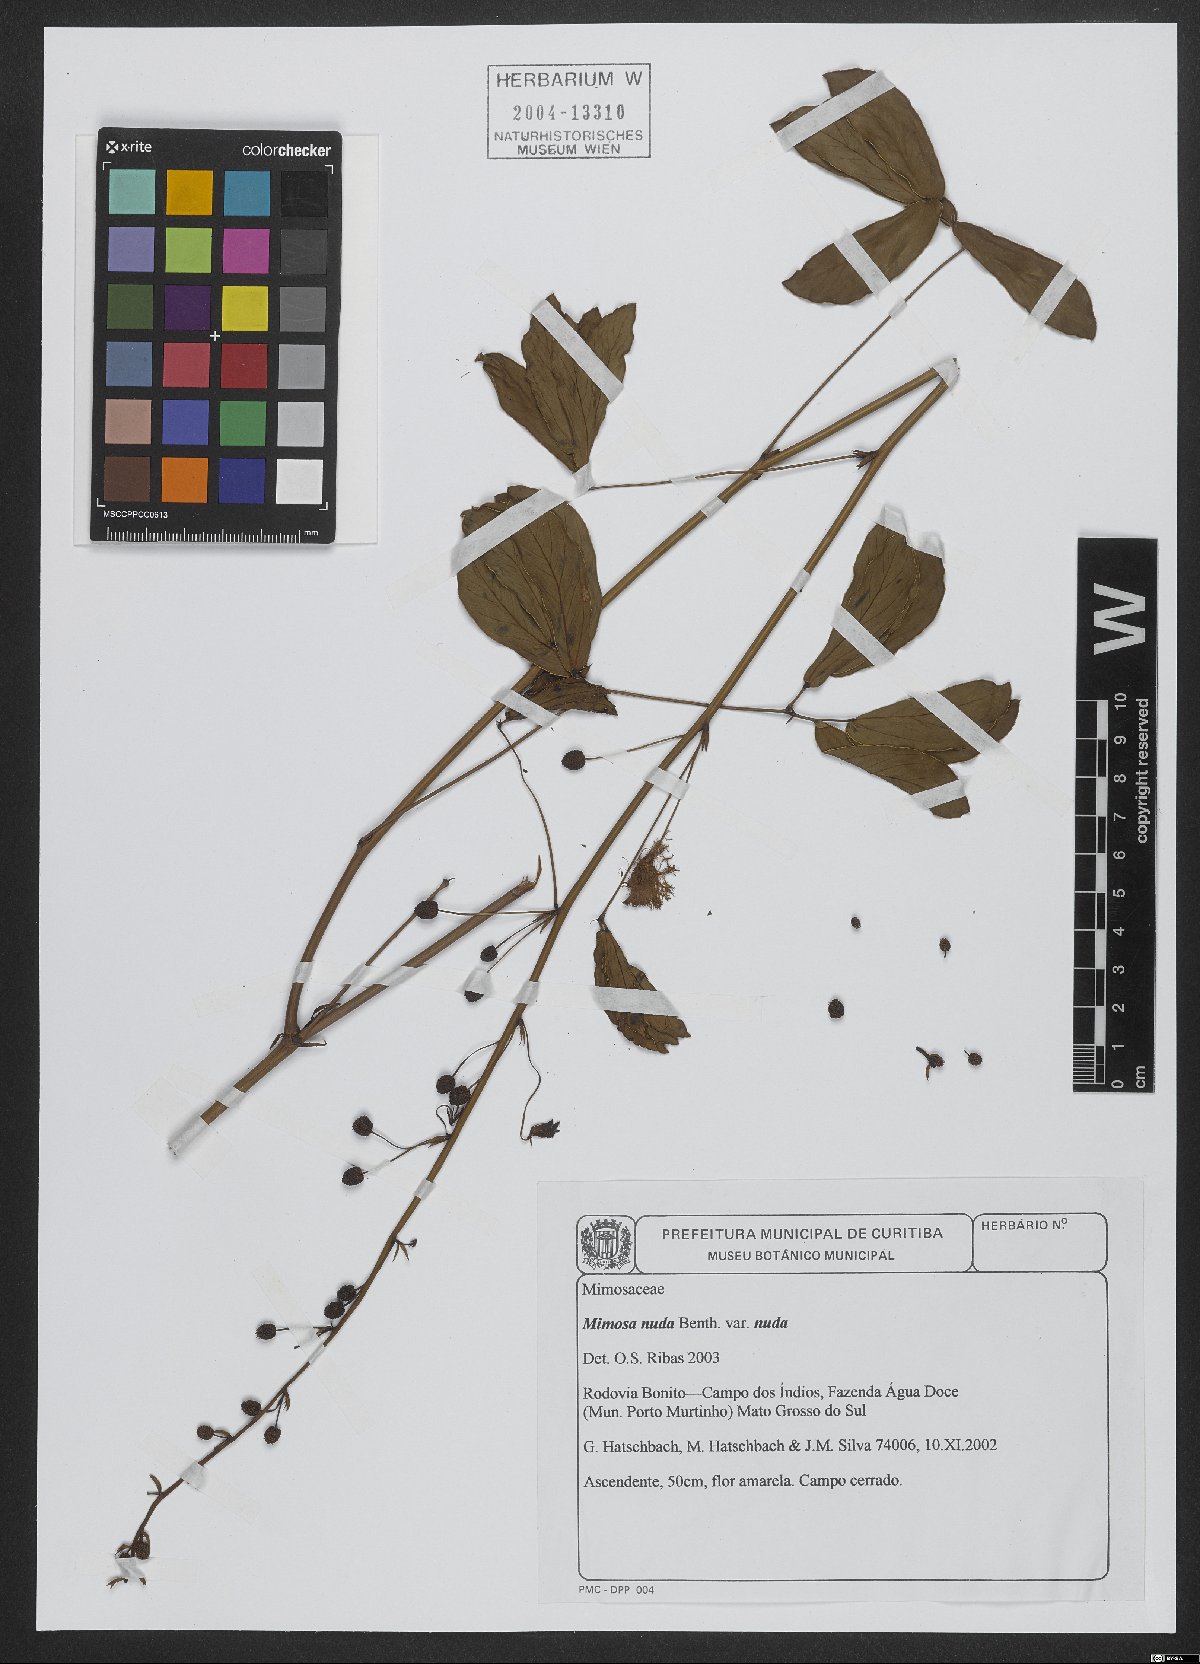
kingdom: Plantae
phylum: Tracheophyta
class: Magnoliopsida
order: Fabales
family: Fabaceae
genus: Mimosa
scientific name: Mimosa debilis
